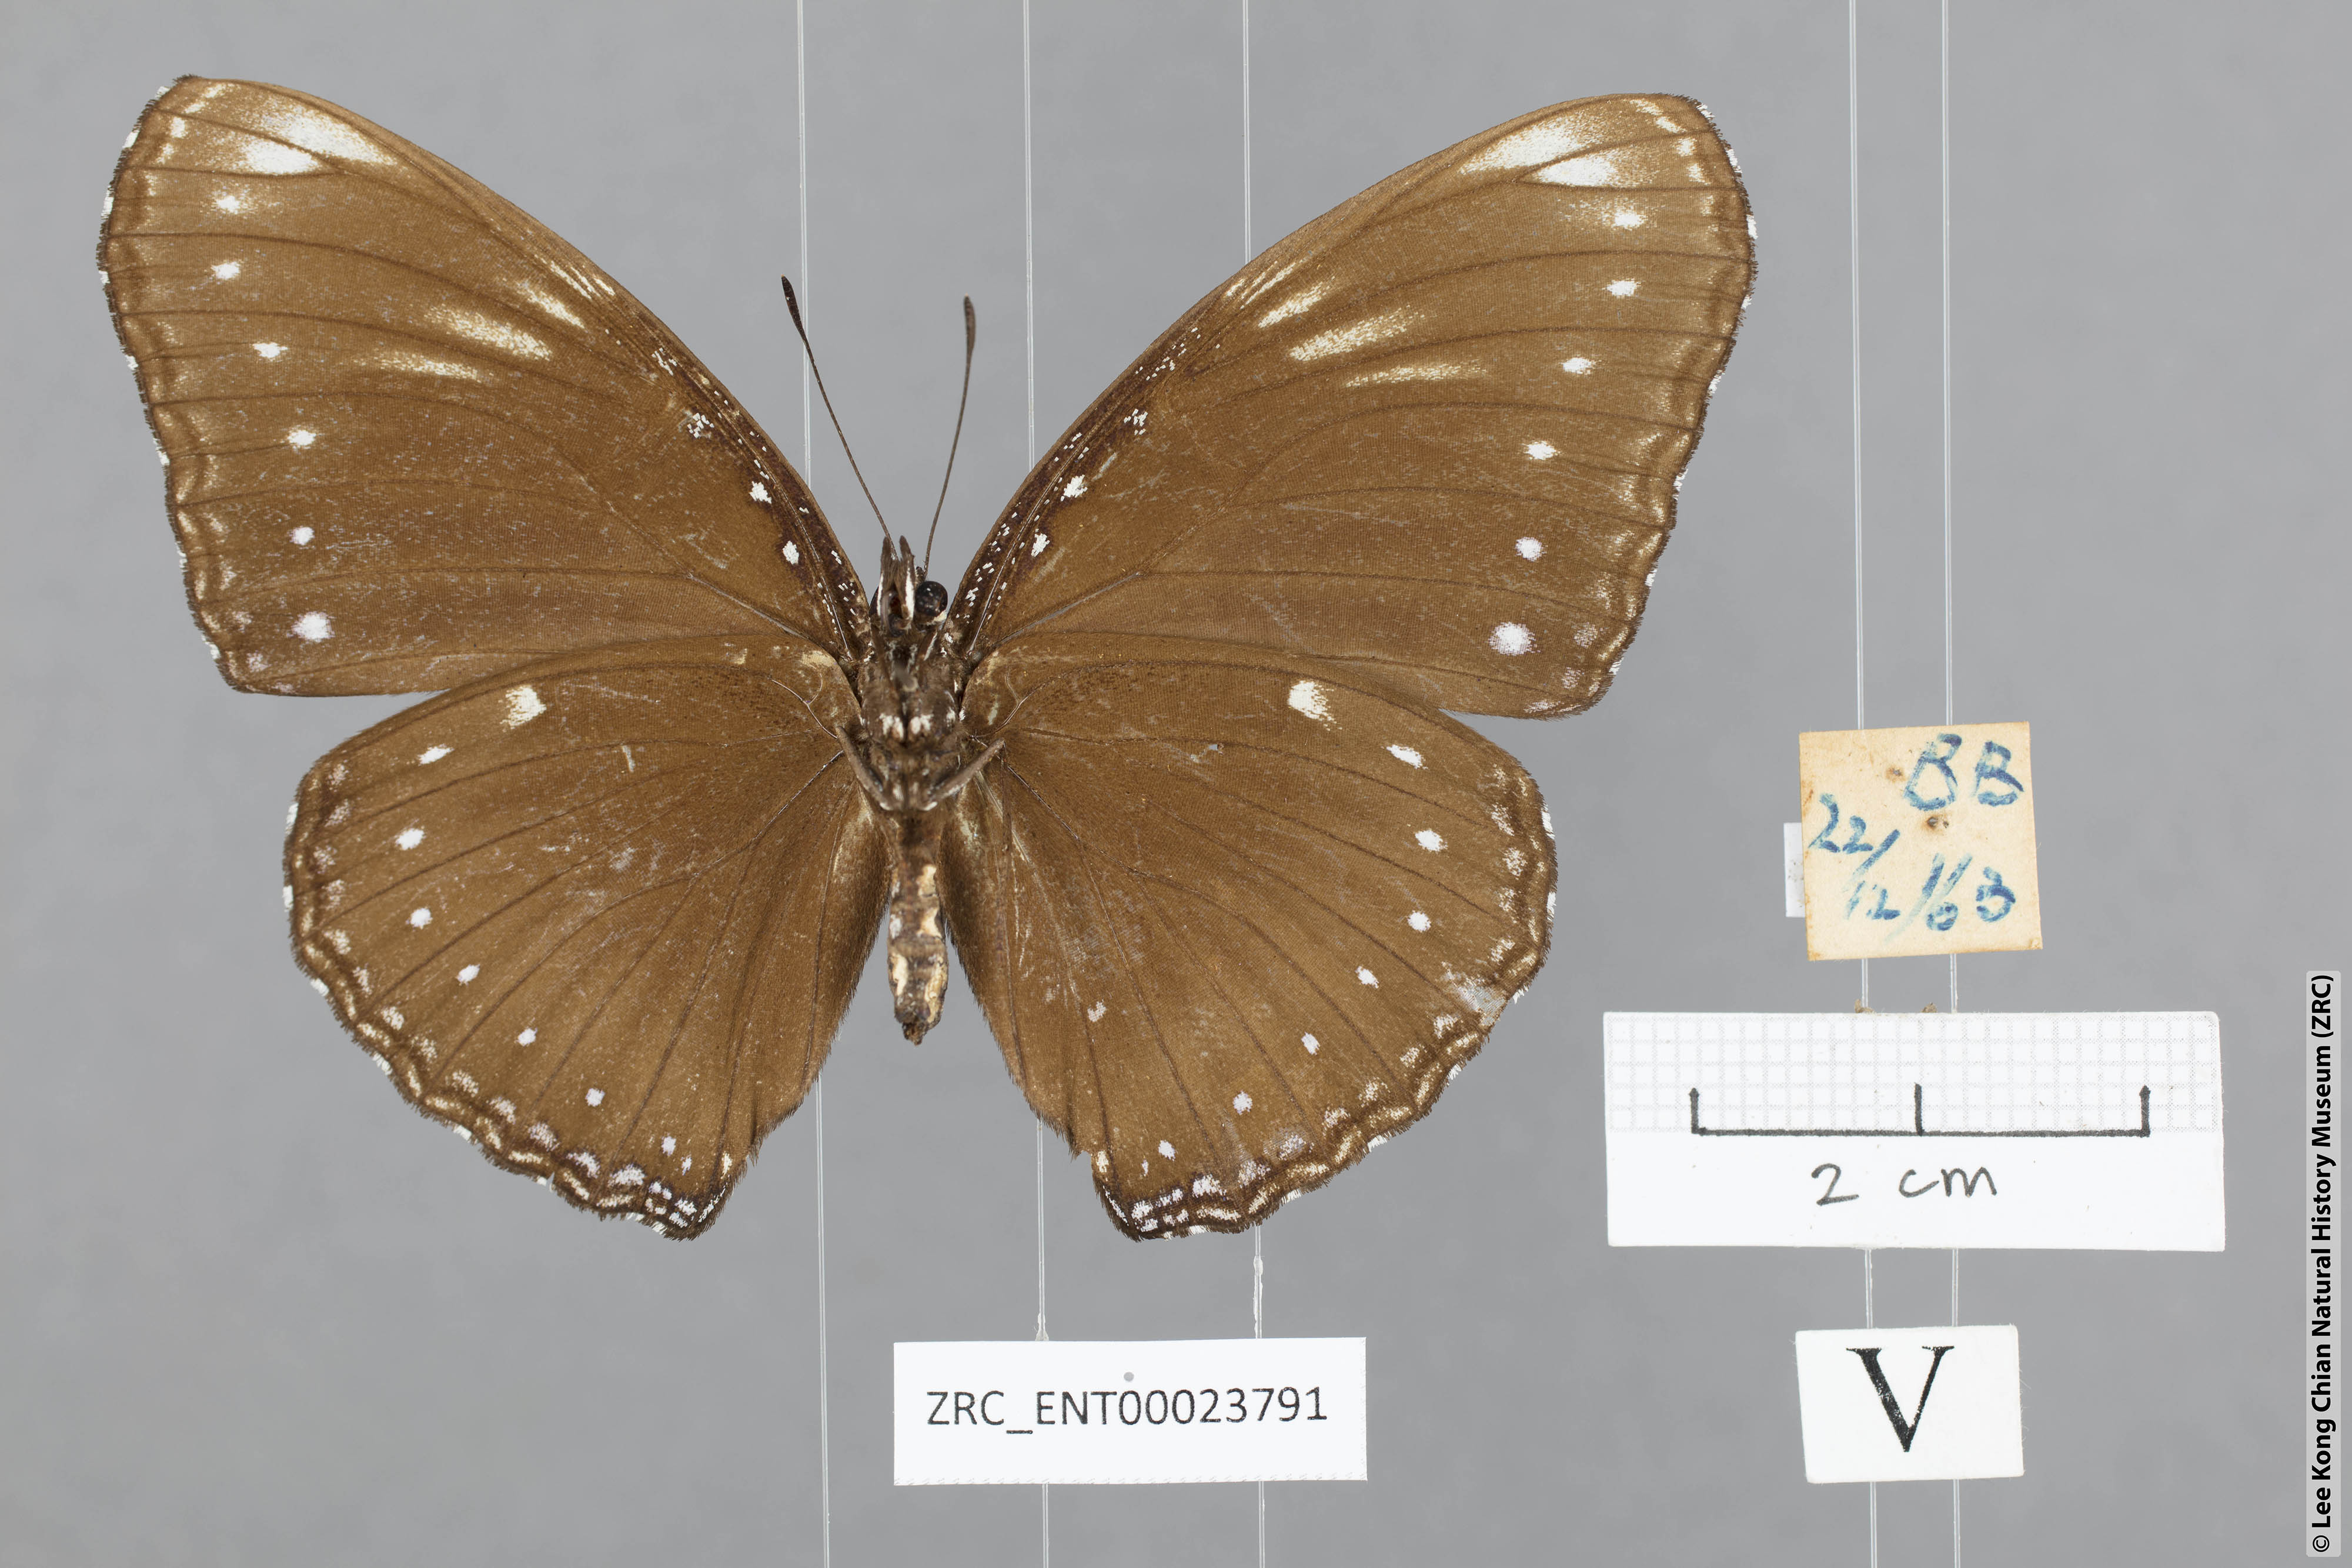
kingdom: Animalia
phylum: Arthropoda
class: Insecta
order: Lepidoptera
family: Nymphalidae
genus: Hypolimnas
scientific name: Hypolimnas anomala
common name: Malayan eggfly
